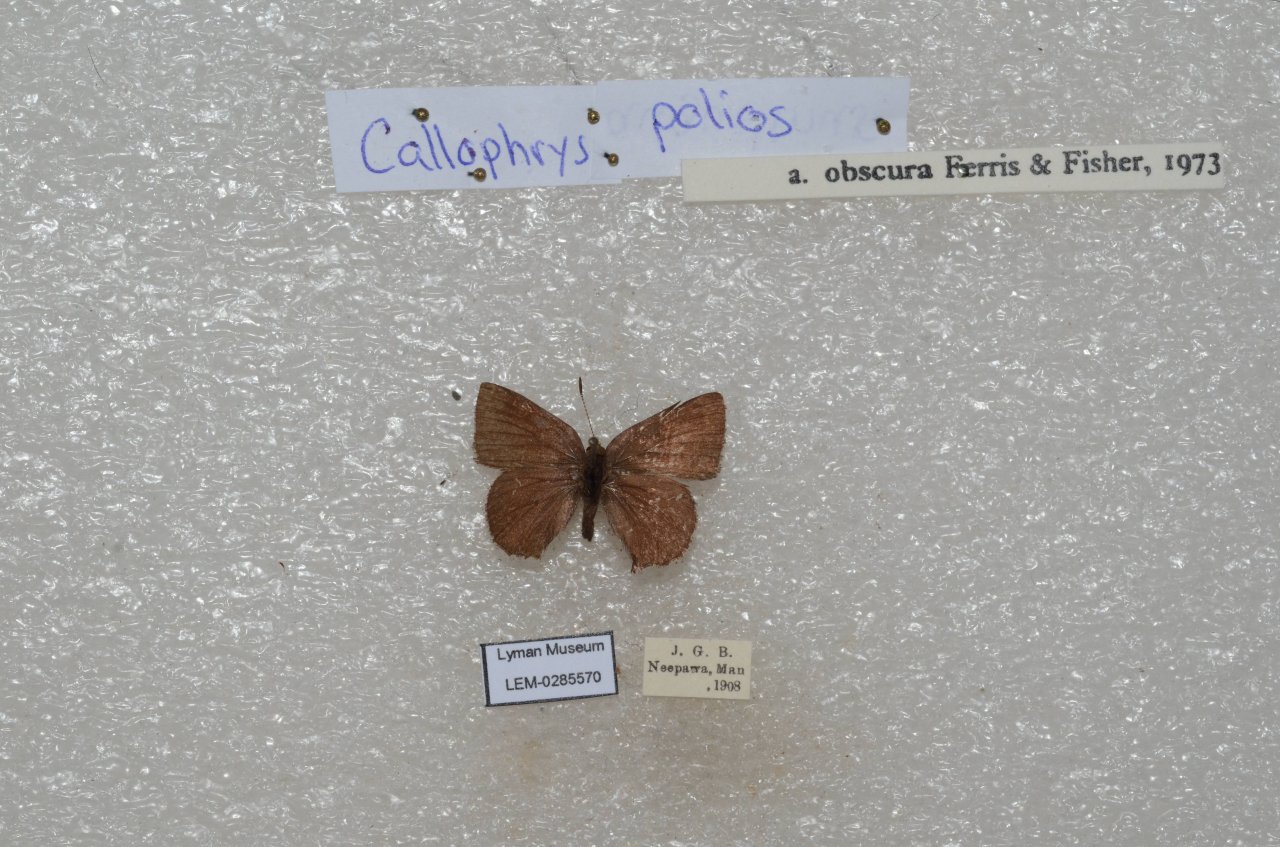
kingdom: Animalia
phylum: Arthropoda
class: Insecta
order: Lepidoptera
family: Lycaenidae
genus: Callophrys
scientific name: Callophrys polios
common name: Hoary Elfin
